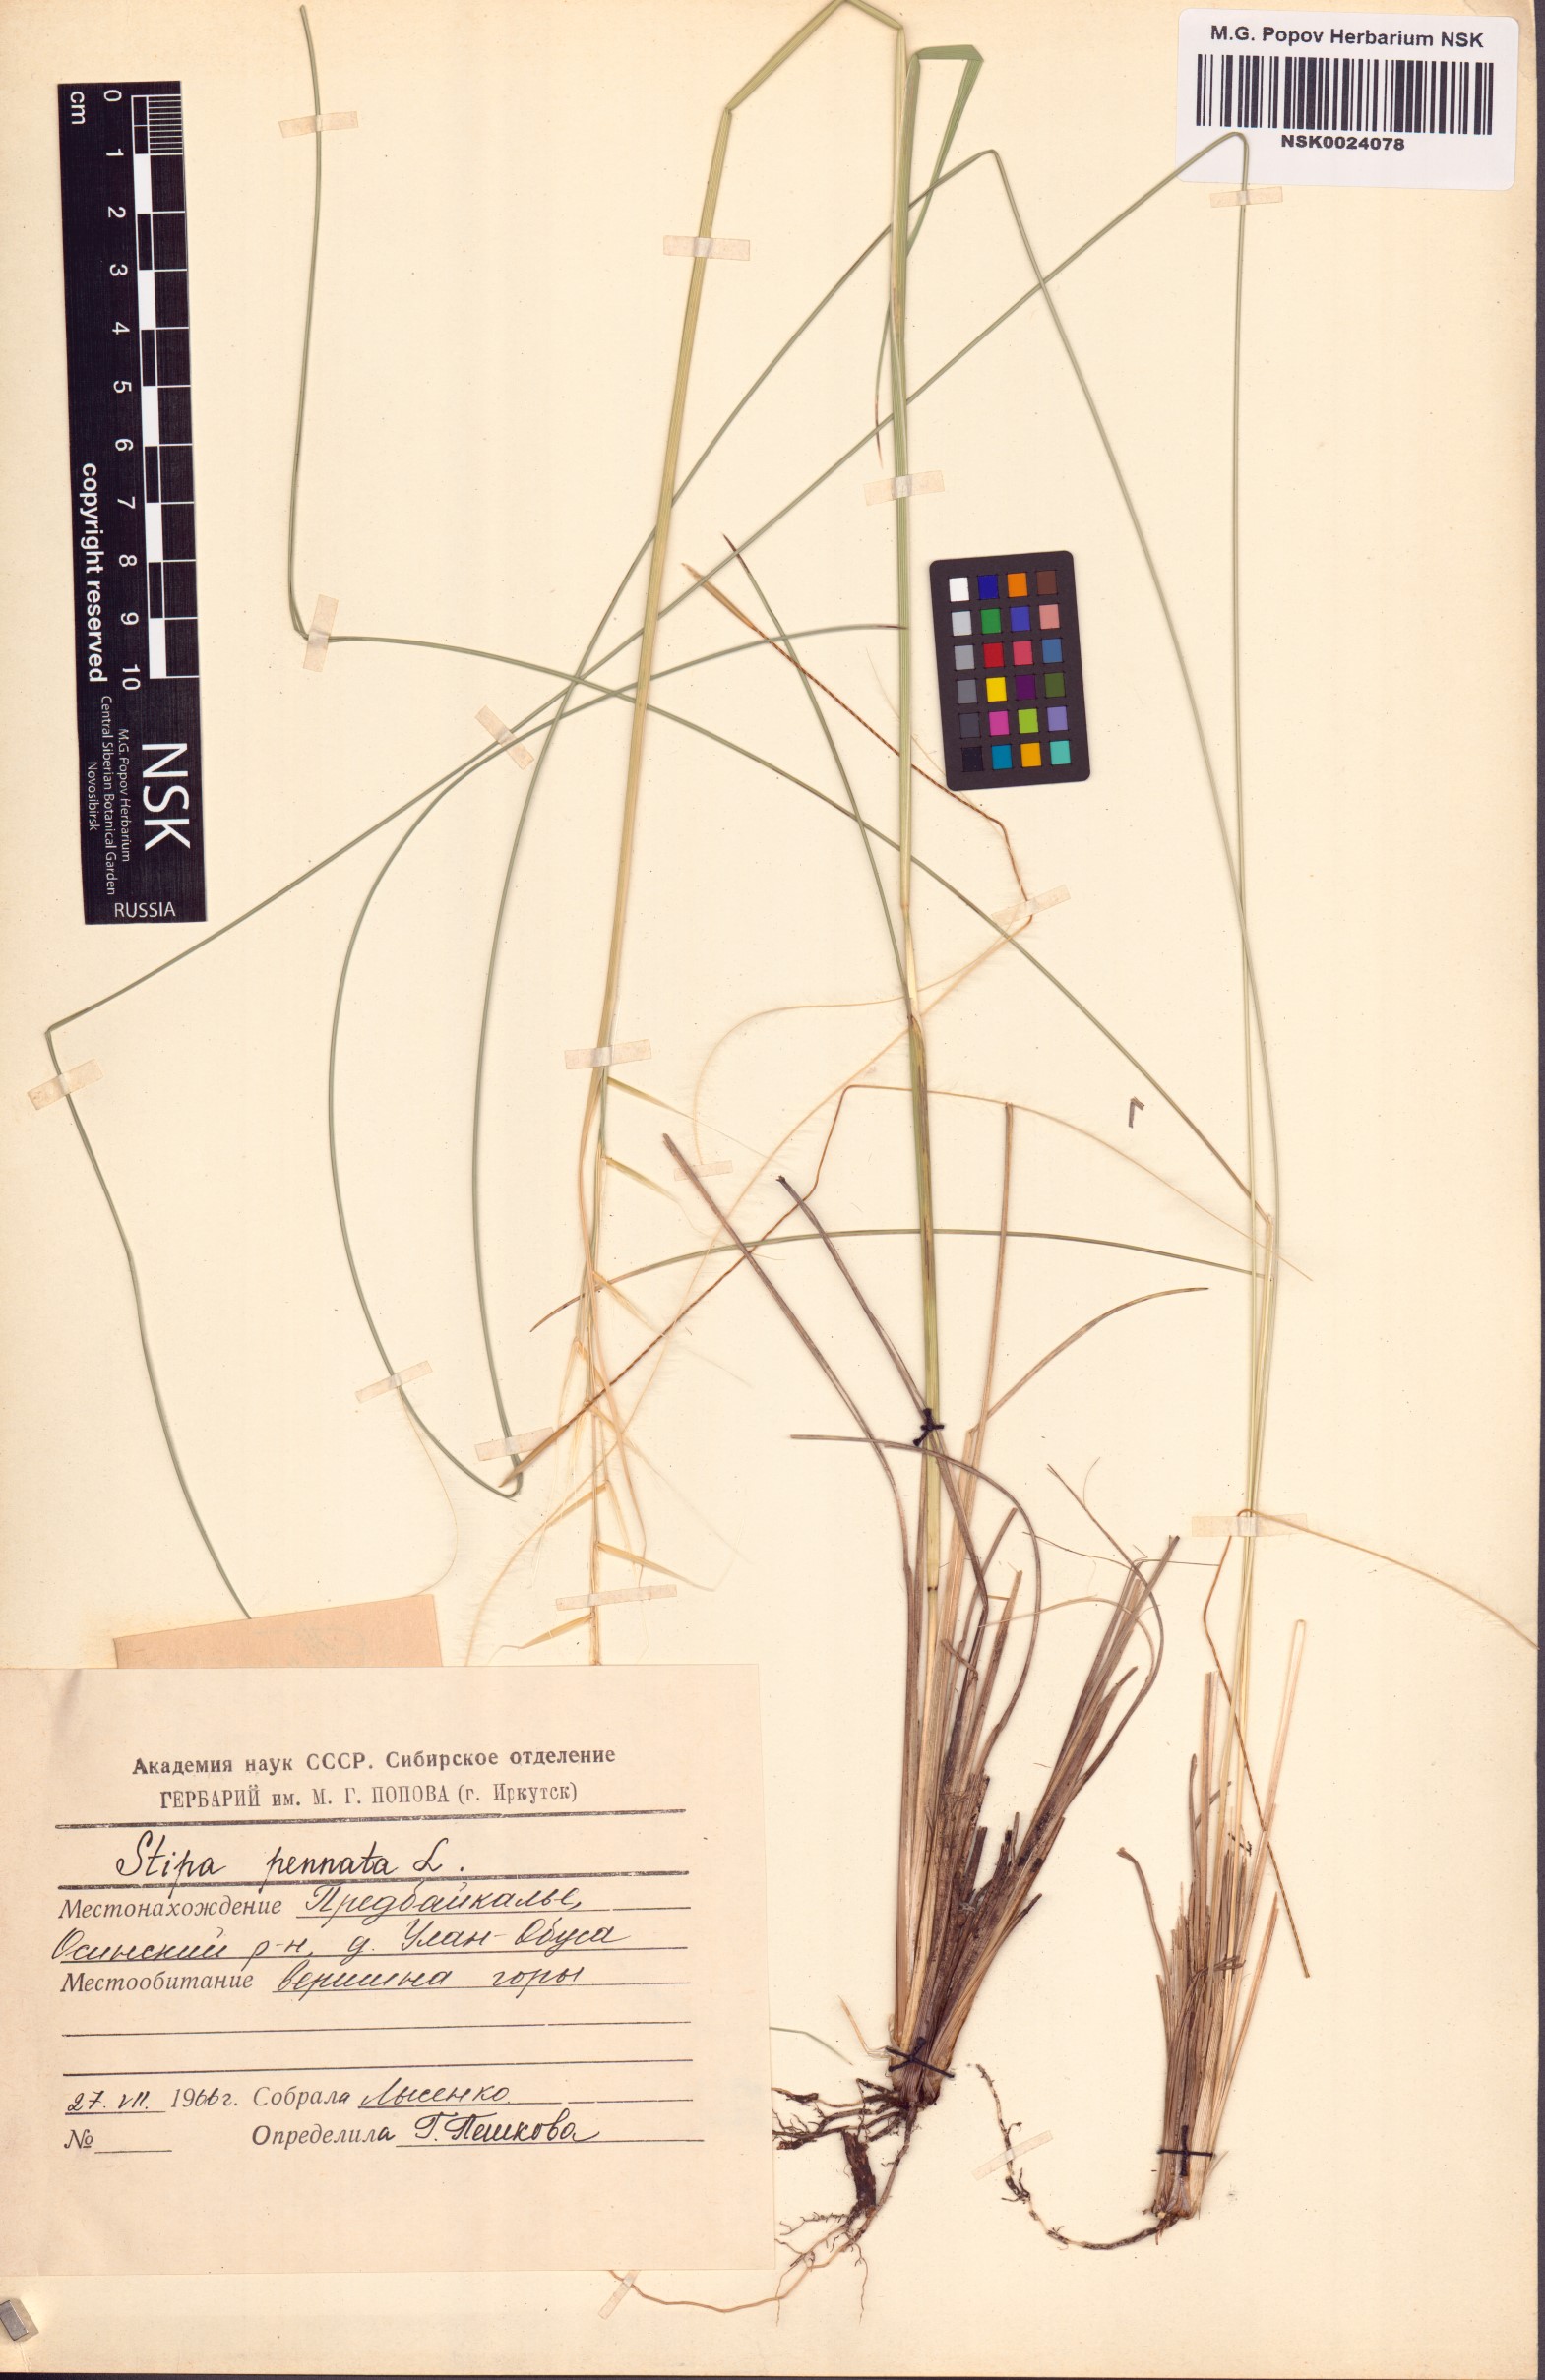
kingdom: Plantae
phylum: Tracheophyta
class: Liliopsida
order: Poales
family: Poaceae
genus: Stipa
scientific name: Stipa pennata
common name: European feather grass
